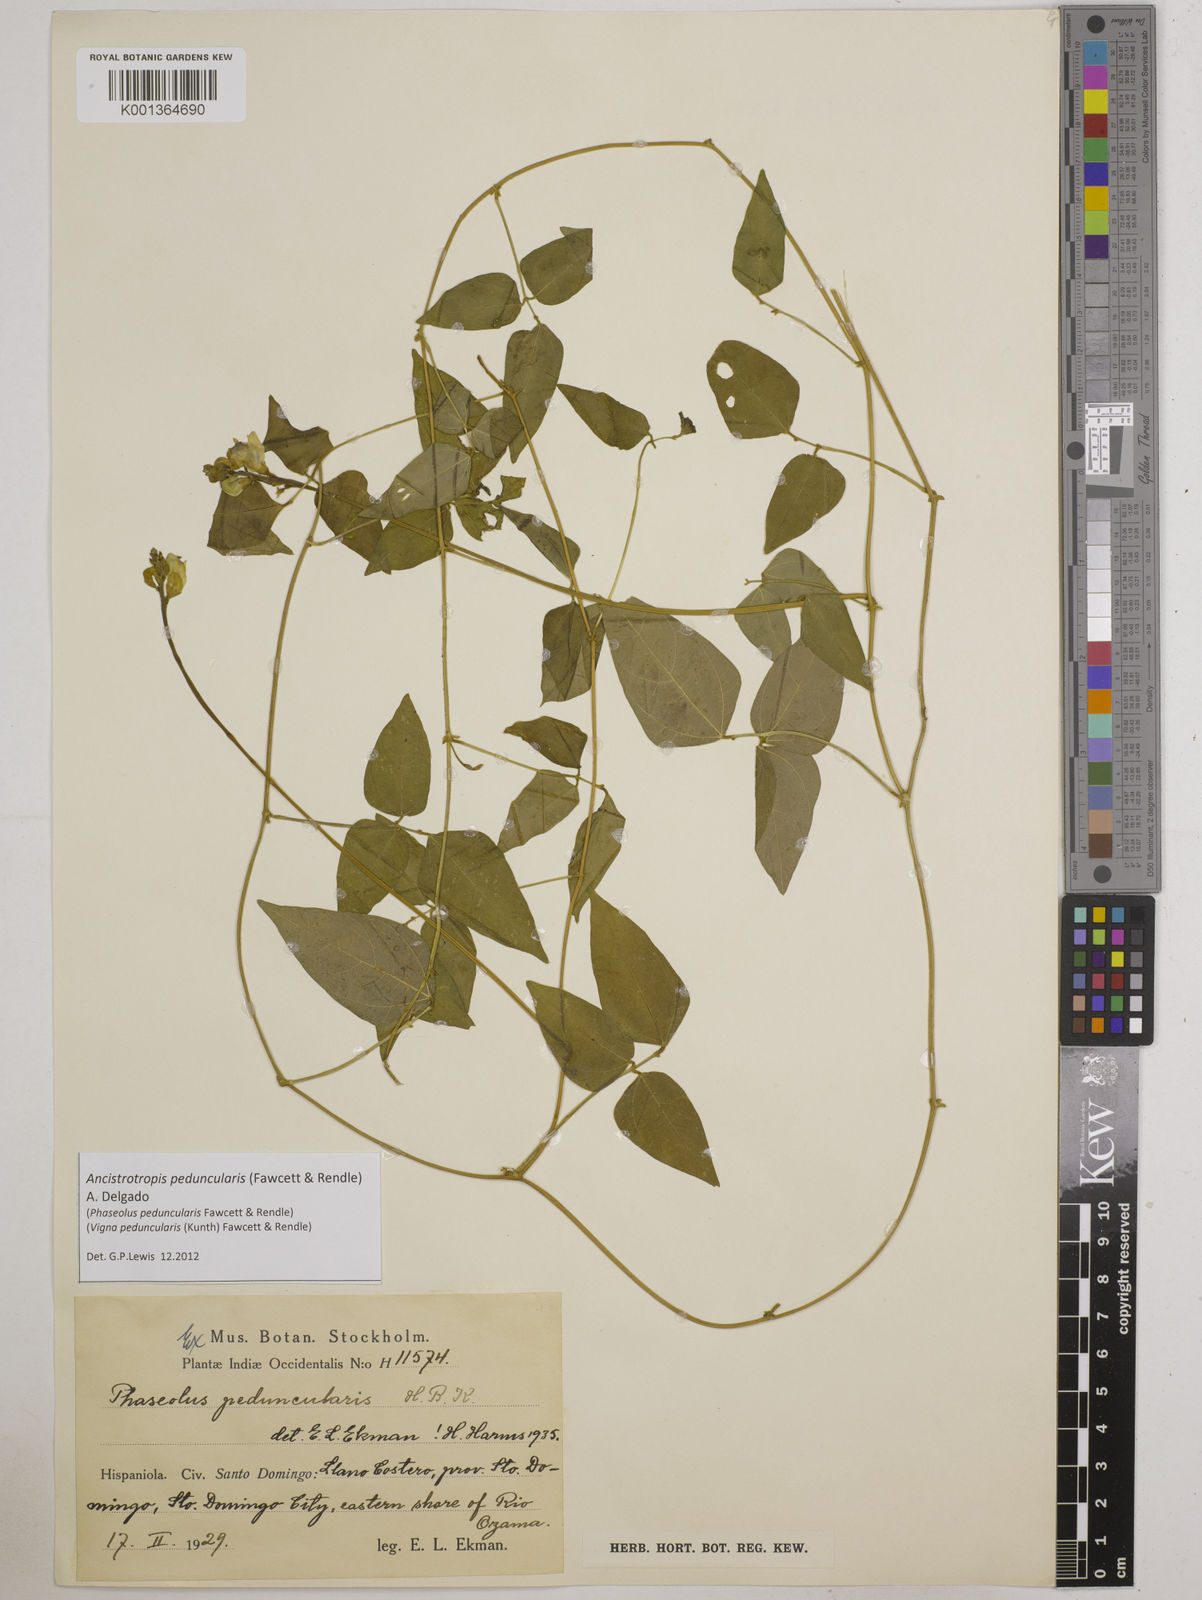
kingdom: Plantae
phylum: Tracheophyta
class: Magnoliopsida
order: Fabales
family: Fabaceae
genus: Ancistrotropis
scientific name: Ancistrotropis peduncularis
